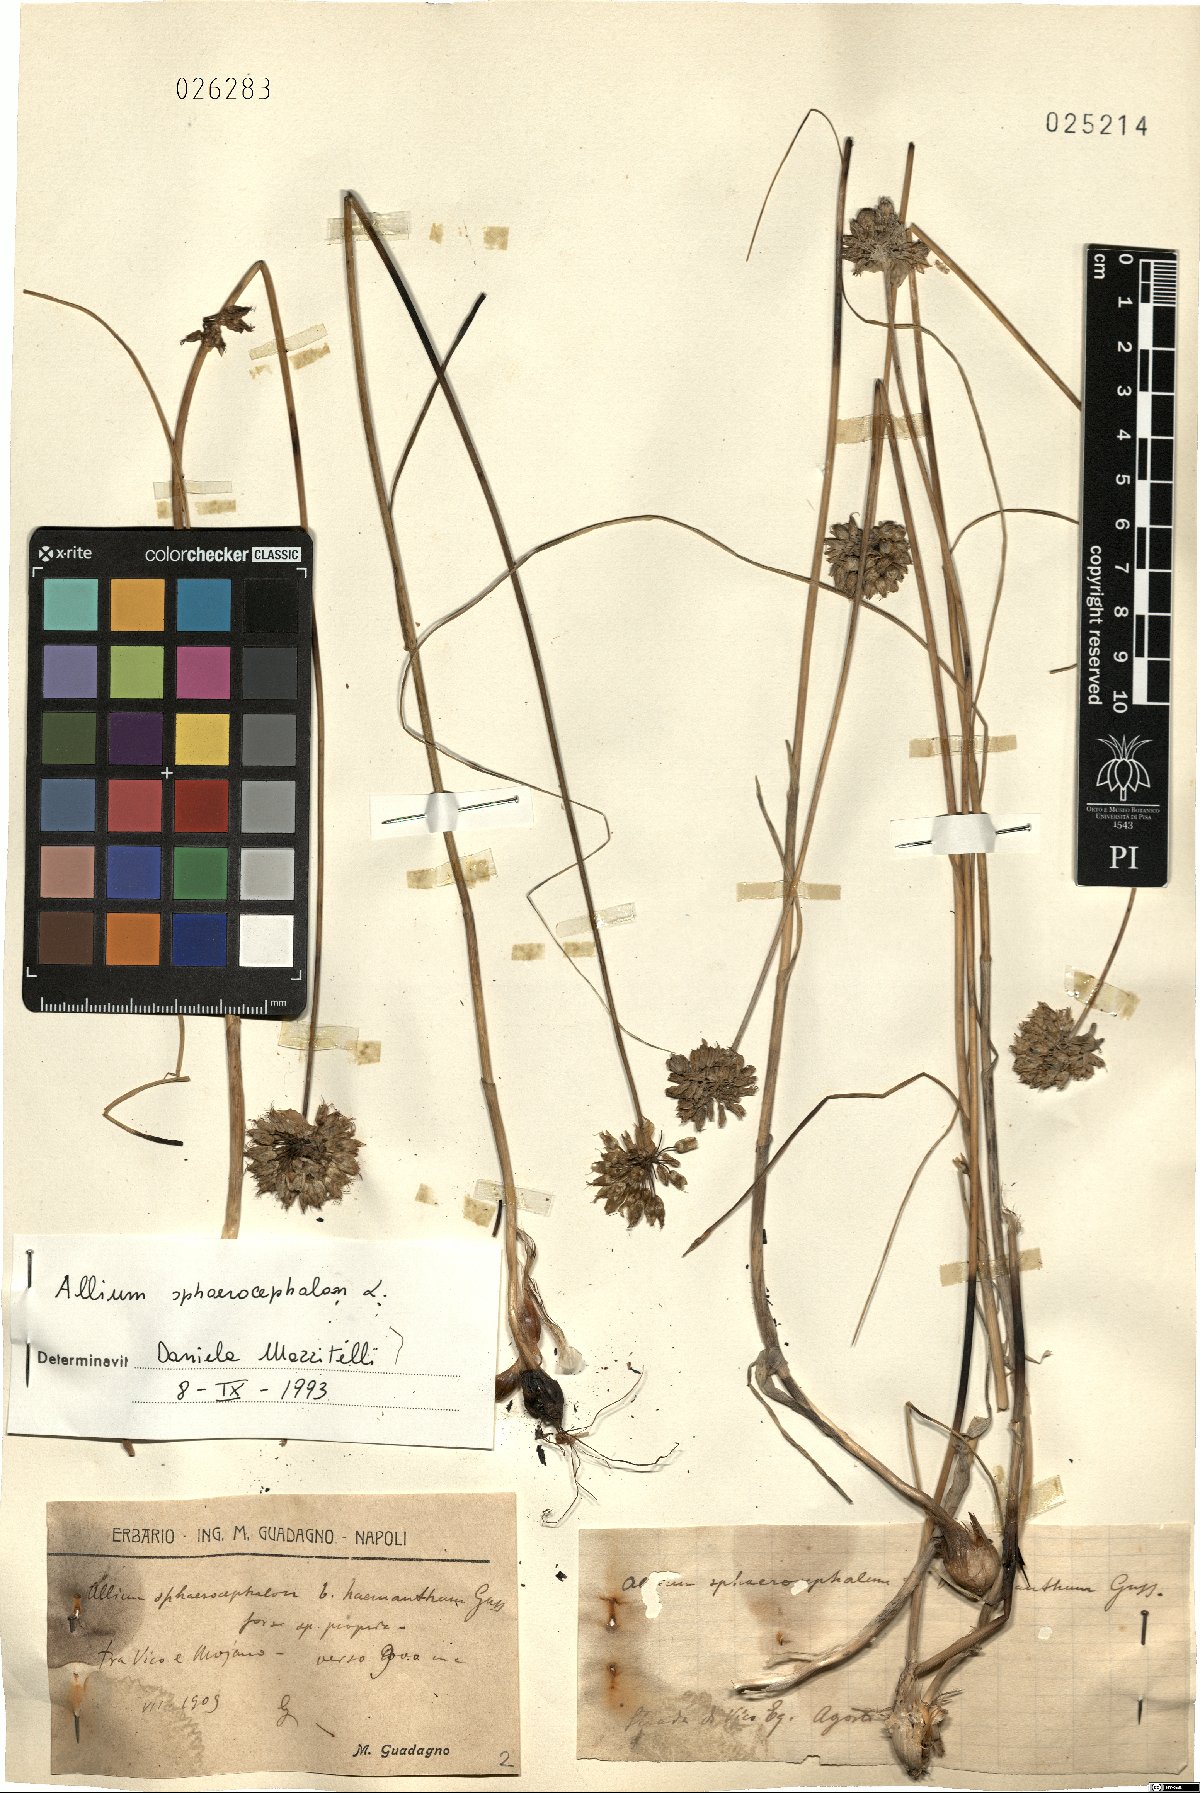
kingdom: Plantae
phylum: Tracheophyta
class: Liliopsida
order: Asparagales
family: Amaryllidaceae
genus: Allium
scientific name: Allium sphaerocephalon
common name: Round-headed leek
